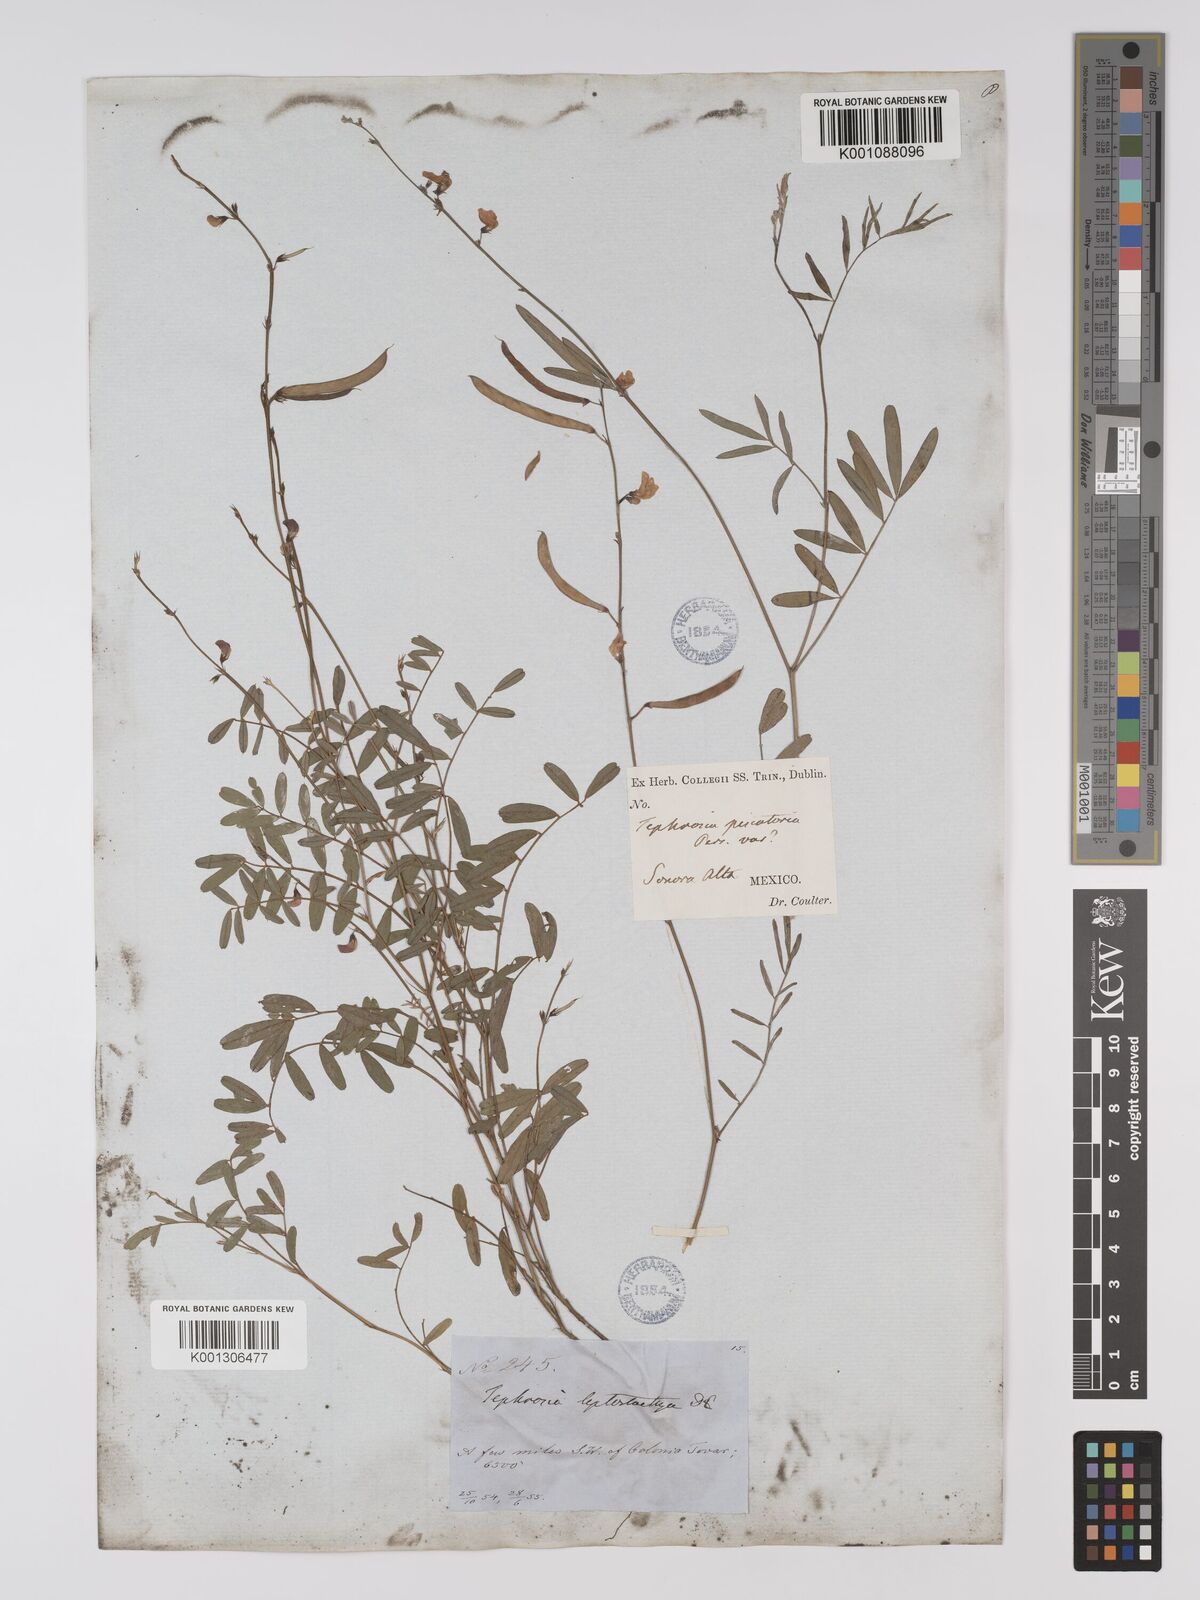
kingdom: Plantae
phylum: Tracheophyta
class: Magnoliopsida
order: Fabales
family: Fabaceae
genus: Tephrosia
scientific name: Tephrosia purpurea
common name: Fishpoison
